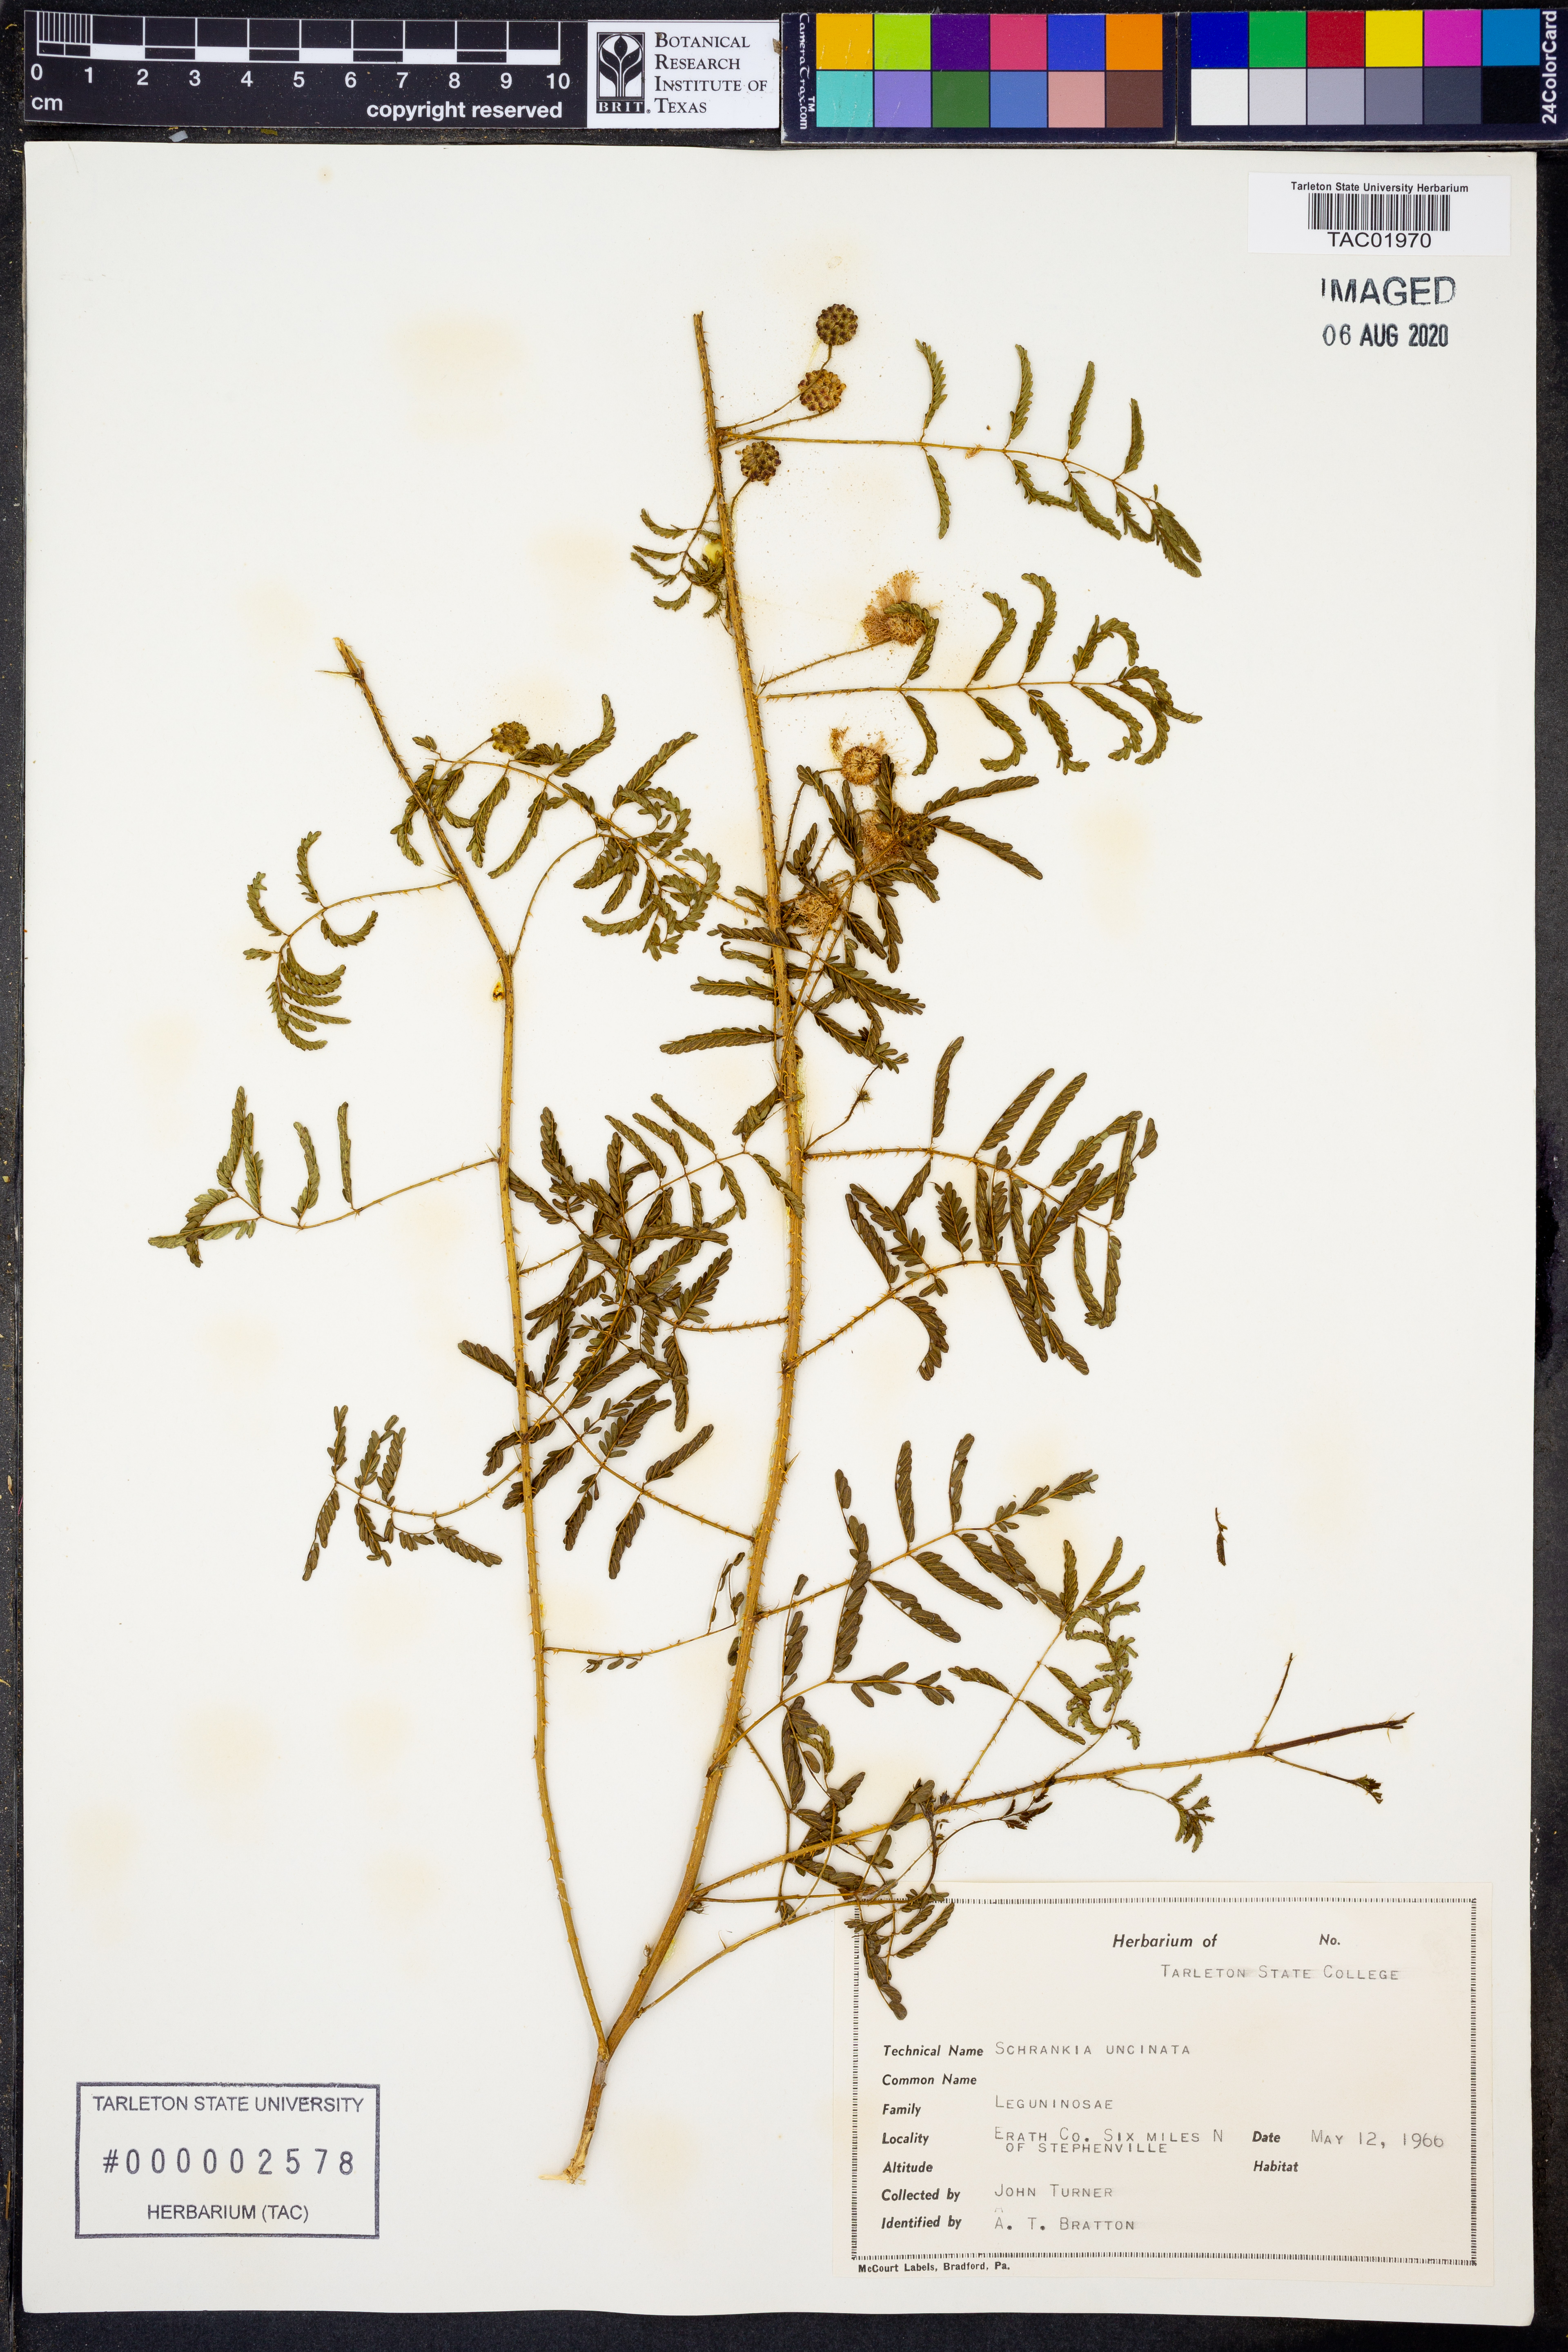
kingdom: Plantae
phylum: Tracheophyta
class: Magnoliopsida
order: Fabales
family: Fabaceae
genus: Mimosa
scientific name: Mimosa quadrivalvis
